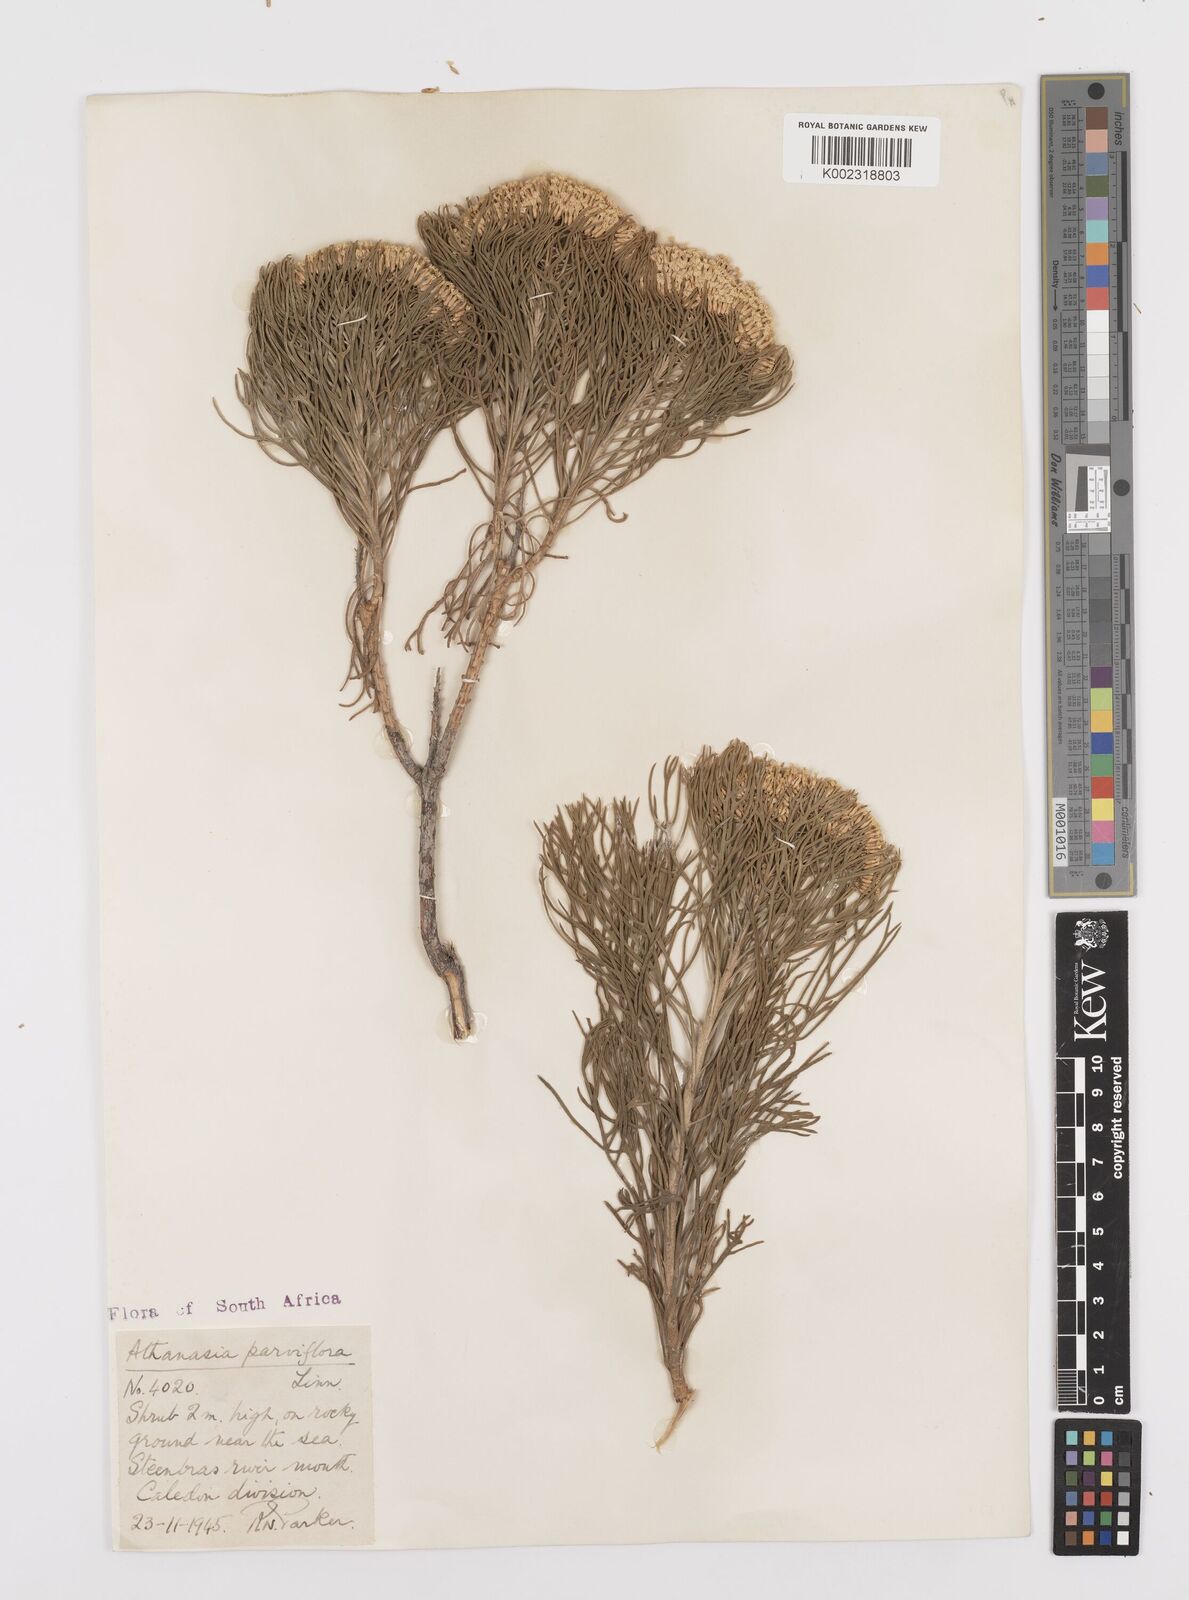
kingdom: Plantae
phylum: Tracheophyta
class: Magnoliopsida
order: Asterales
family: Asteraceae
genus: Hymenolepis
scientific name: Hymenolepis crithmifolia
